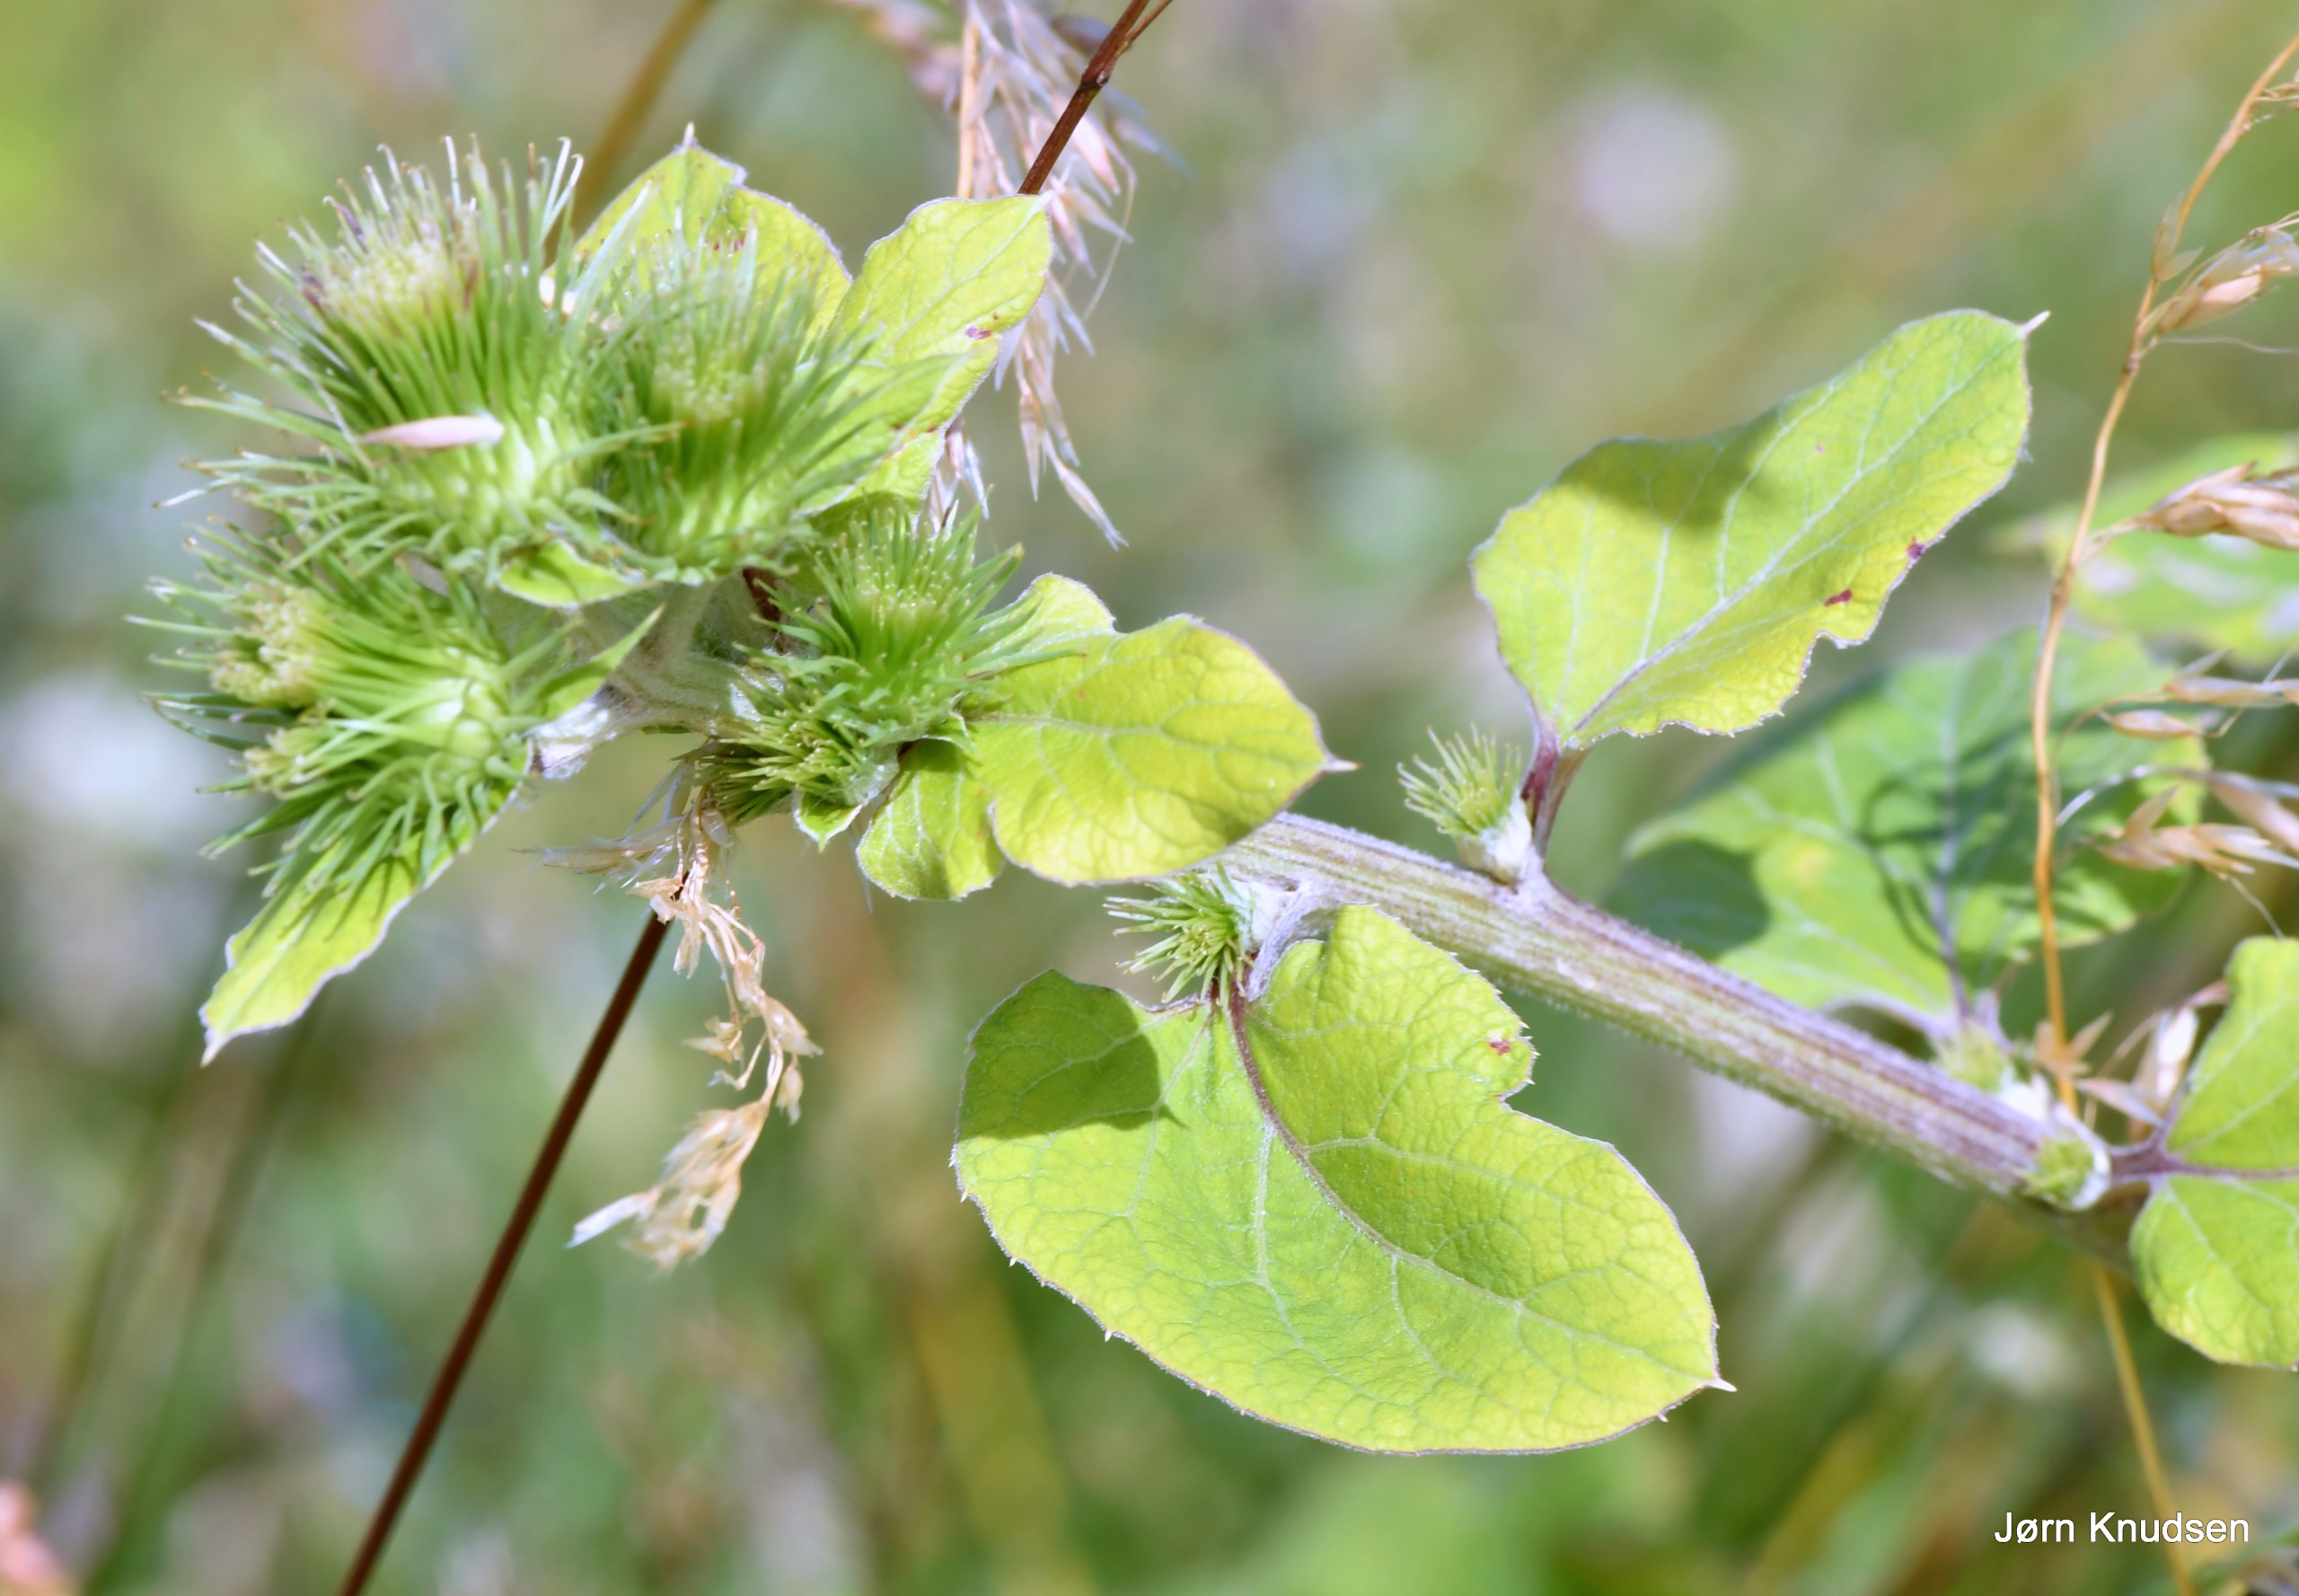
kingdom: Plantae
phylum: Tracheophyta
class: Magnoliopsida
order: Asterales
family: Asteraceae
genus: Arctium
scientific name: Arctium lappa
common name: Glat burre
